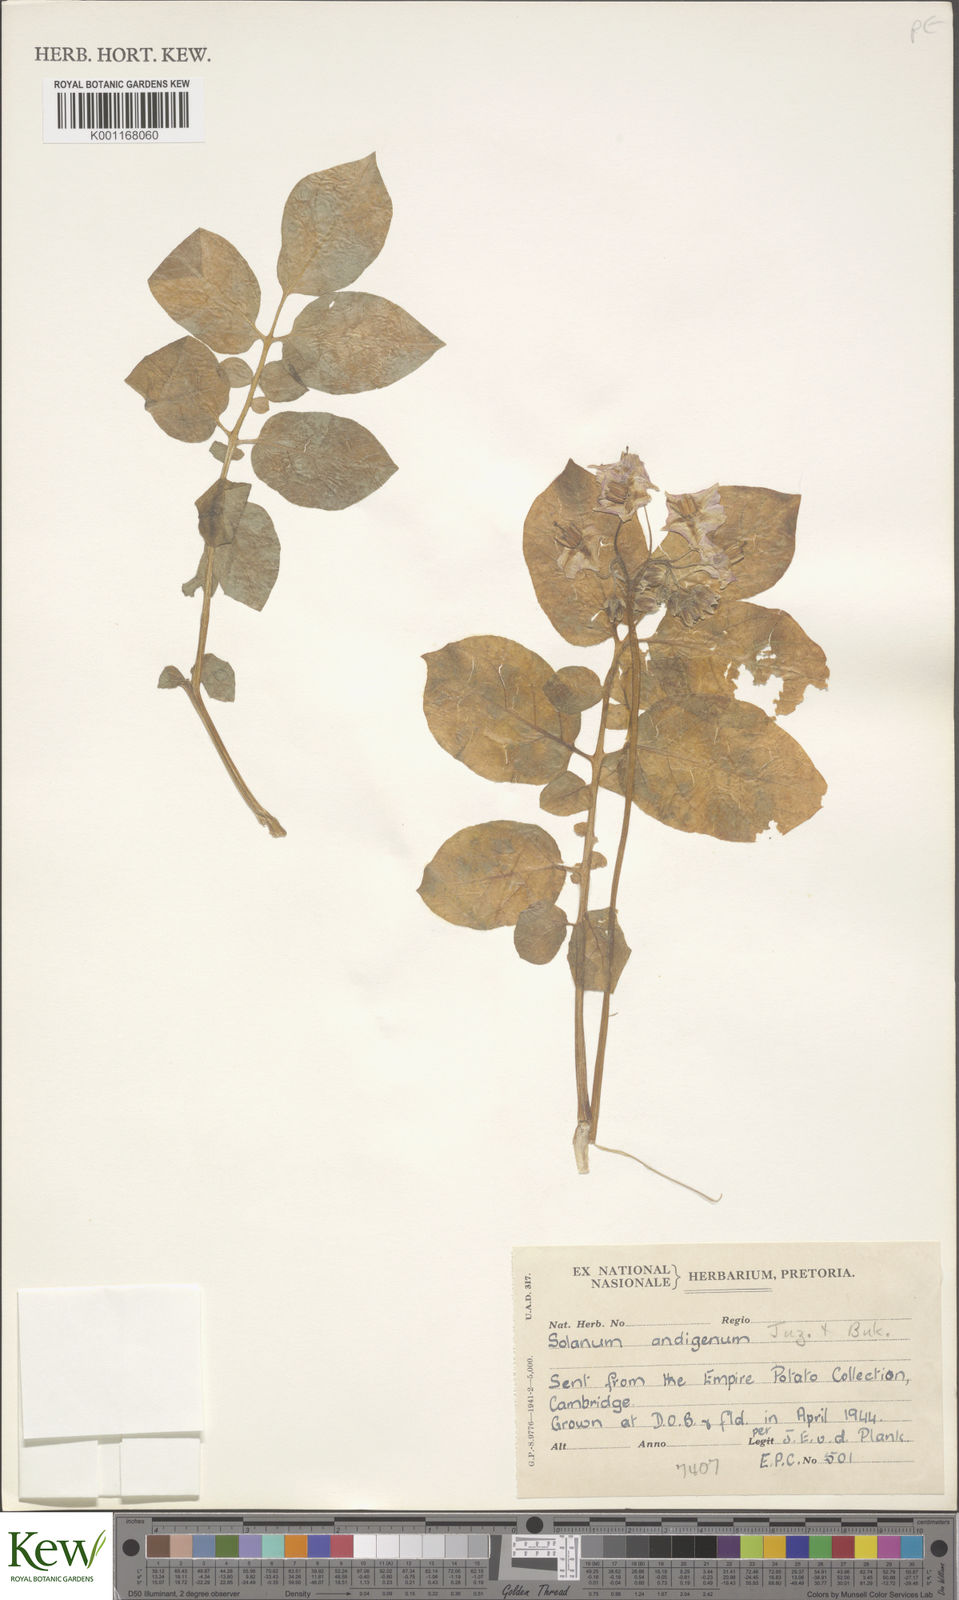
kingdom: Plantae
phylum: Tracheophyta
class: Magnoliopsida
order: Solanales
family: Solanaceae
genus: Solanum
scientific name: Solanum tuberosum
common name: Potato
